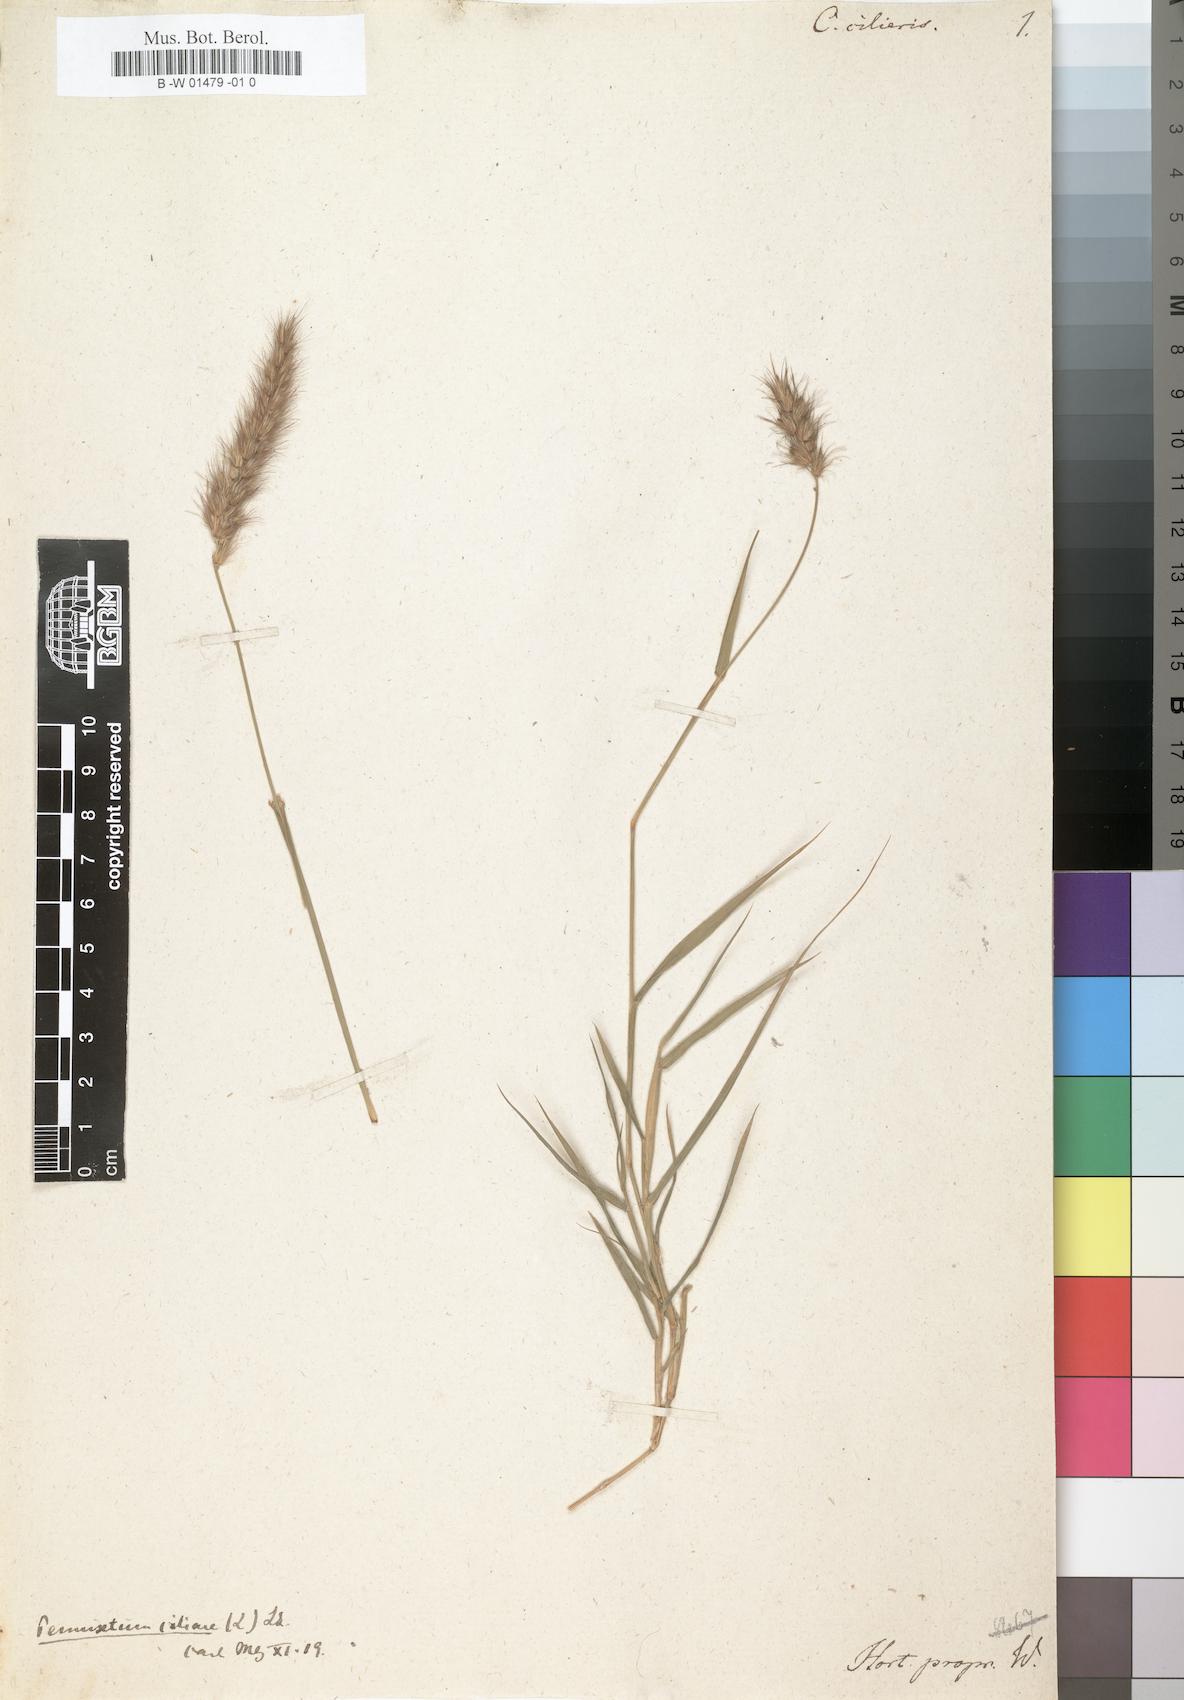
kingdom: Plantae
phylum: Tracheophyta
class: Liliopsida
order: Poales
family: Poaceae
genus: Cenchrus
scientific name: Cenchrus ciliaris
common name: Buffelgrass
